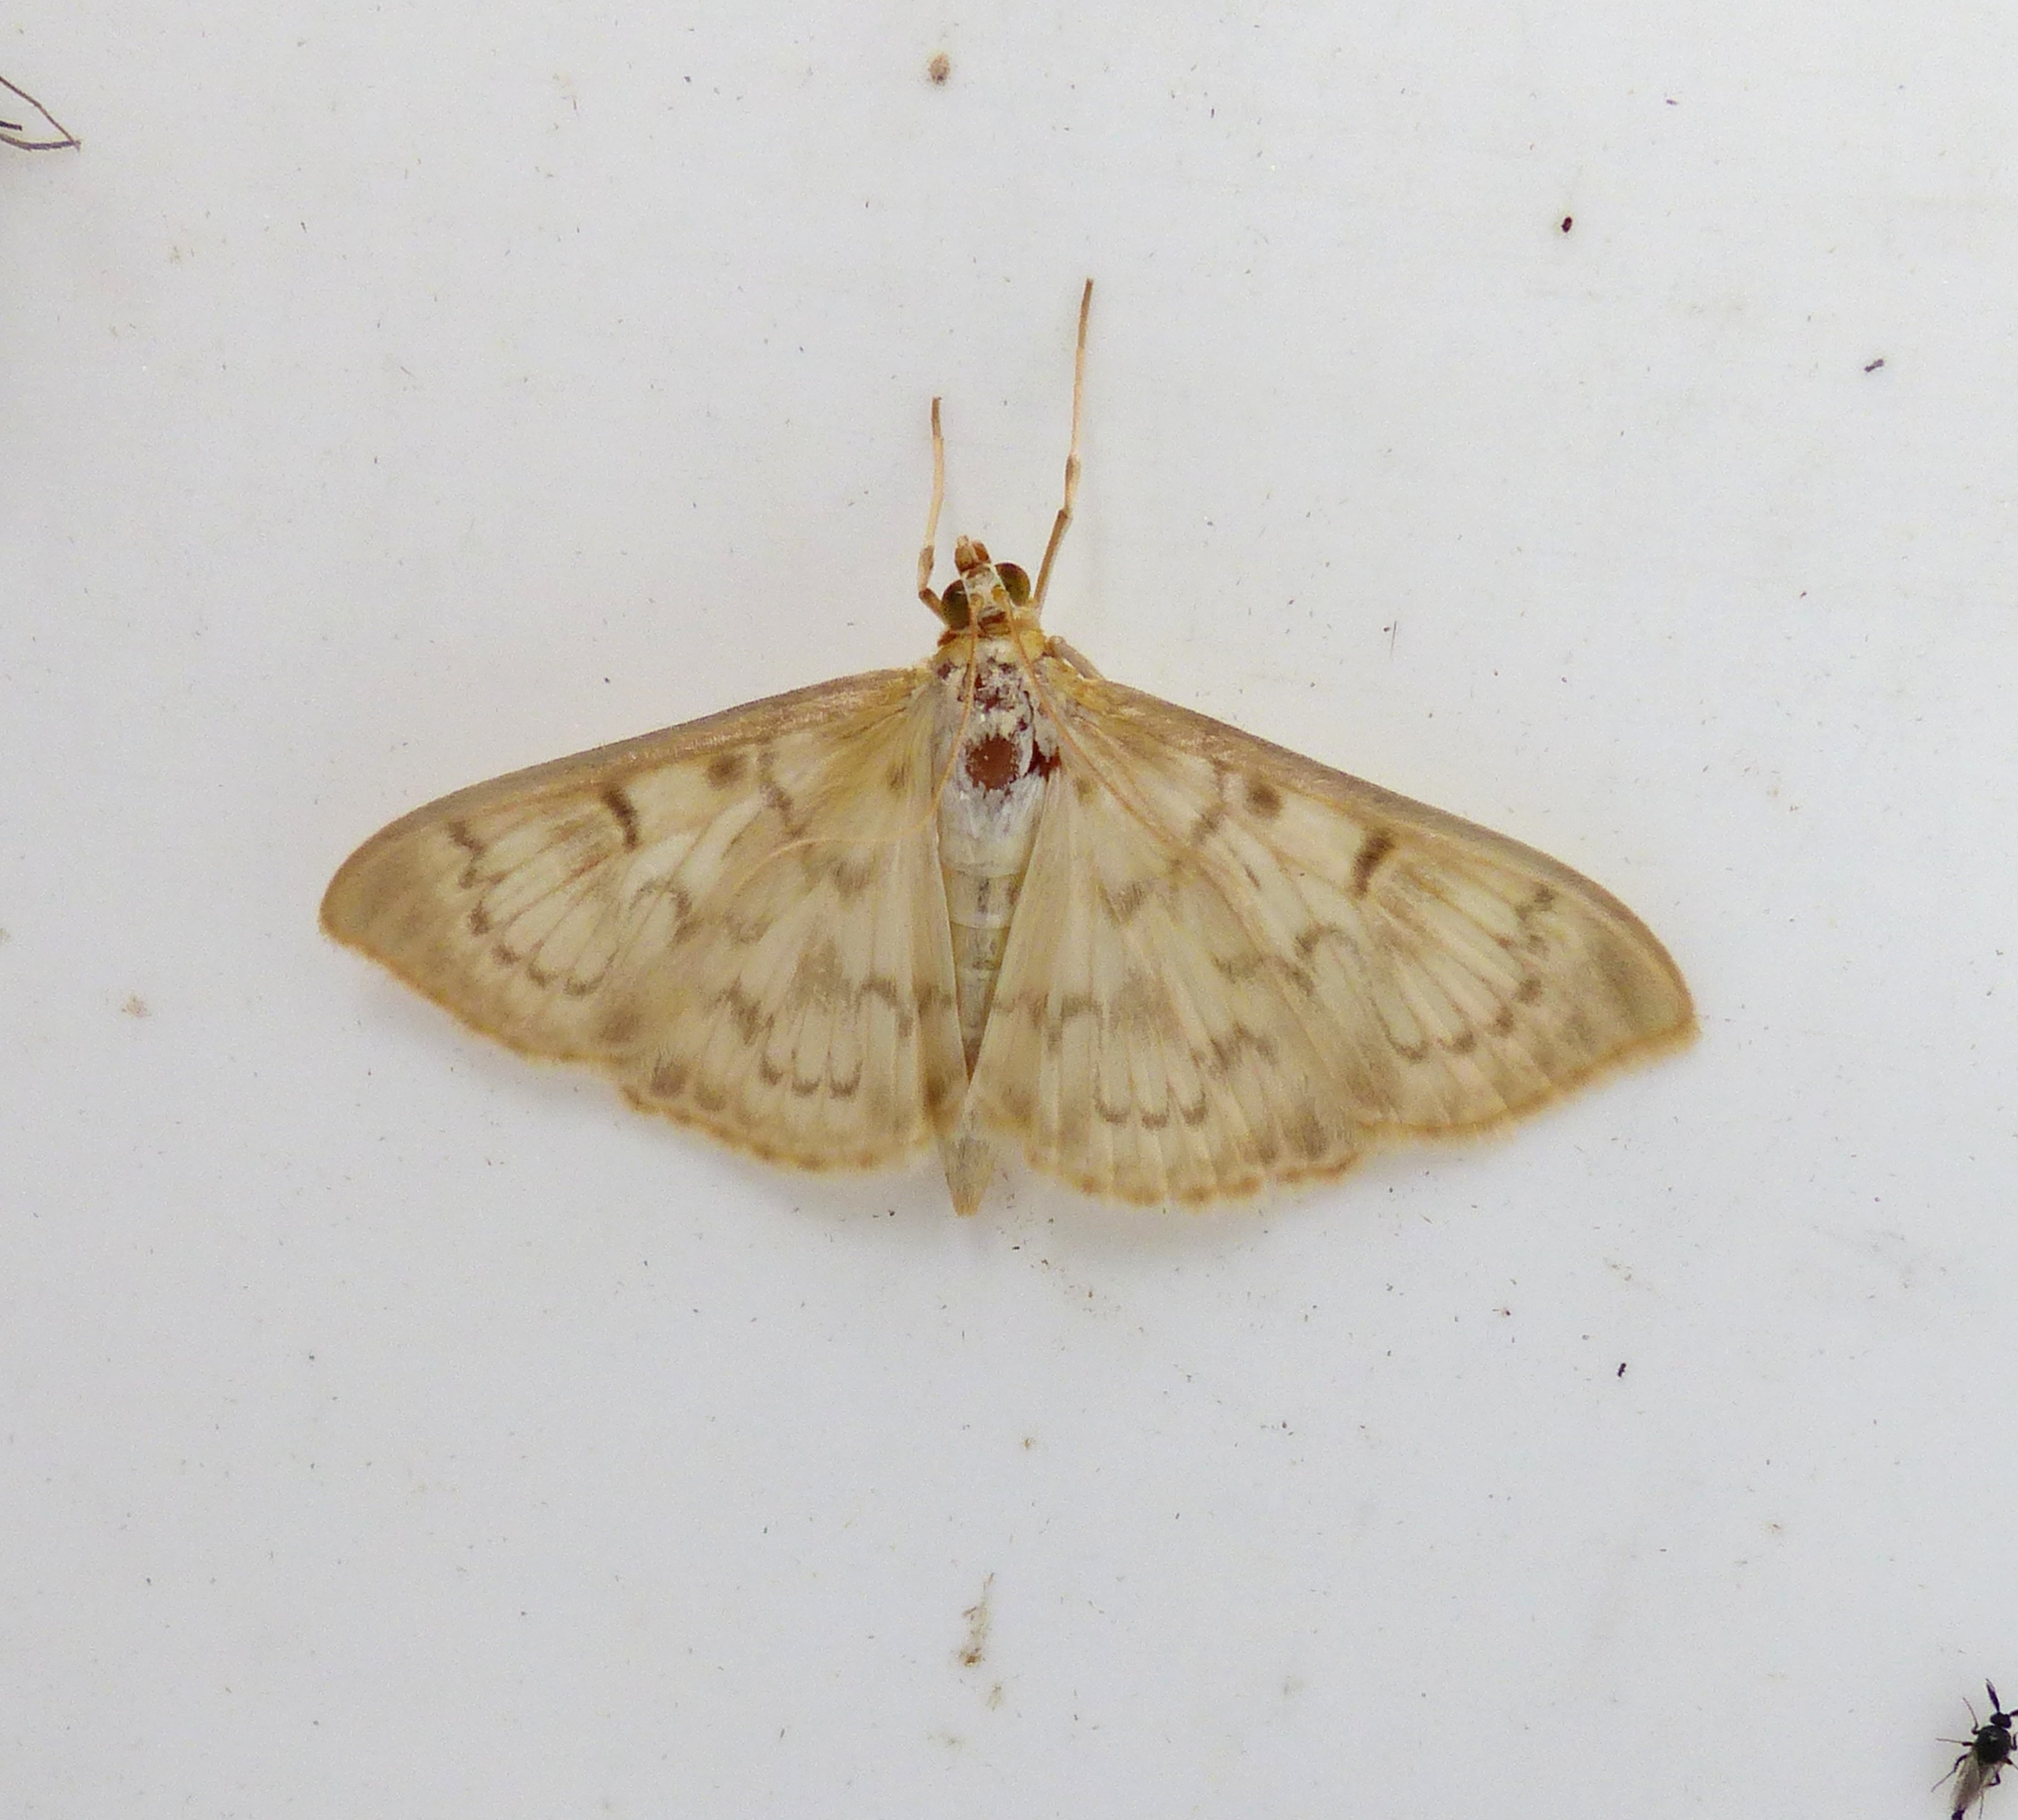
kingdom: Animalia
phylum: Arthropoda
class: Insecta
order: Lepidoptera
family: Crambidae
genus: Patania
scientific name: Patania ruralis
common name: Perlemorshalvmøl
